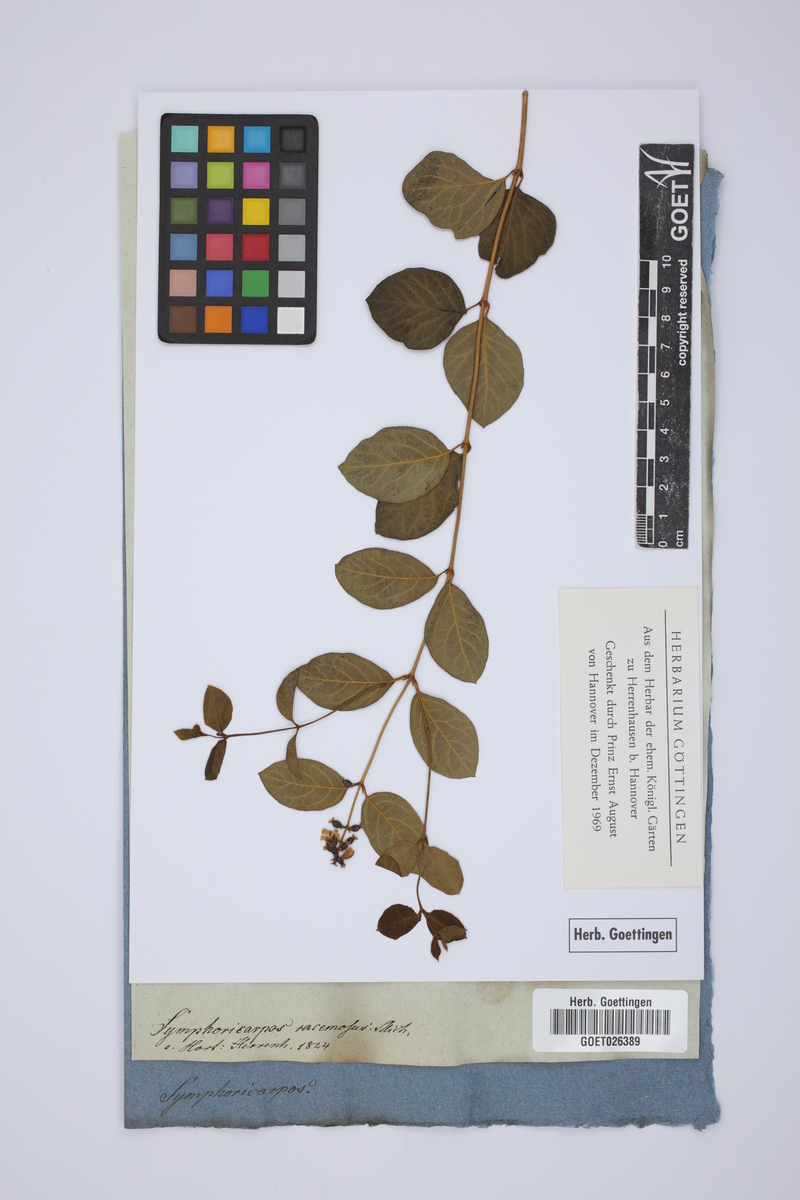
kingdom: Plantae
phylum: Tracheophyta
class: Magnoliopsida
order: Dipsacales
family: Caprifoliaceae
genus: Symphoricarpos
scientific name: Symphoricarpos albus
